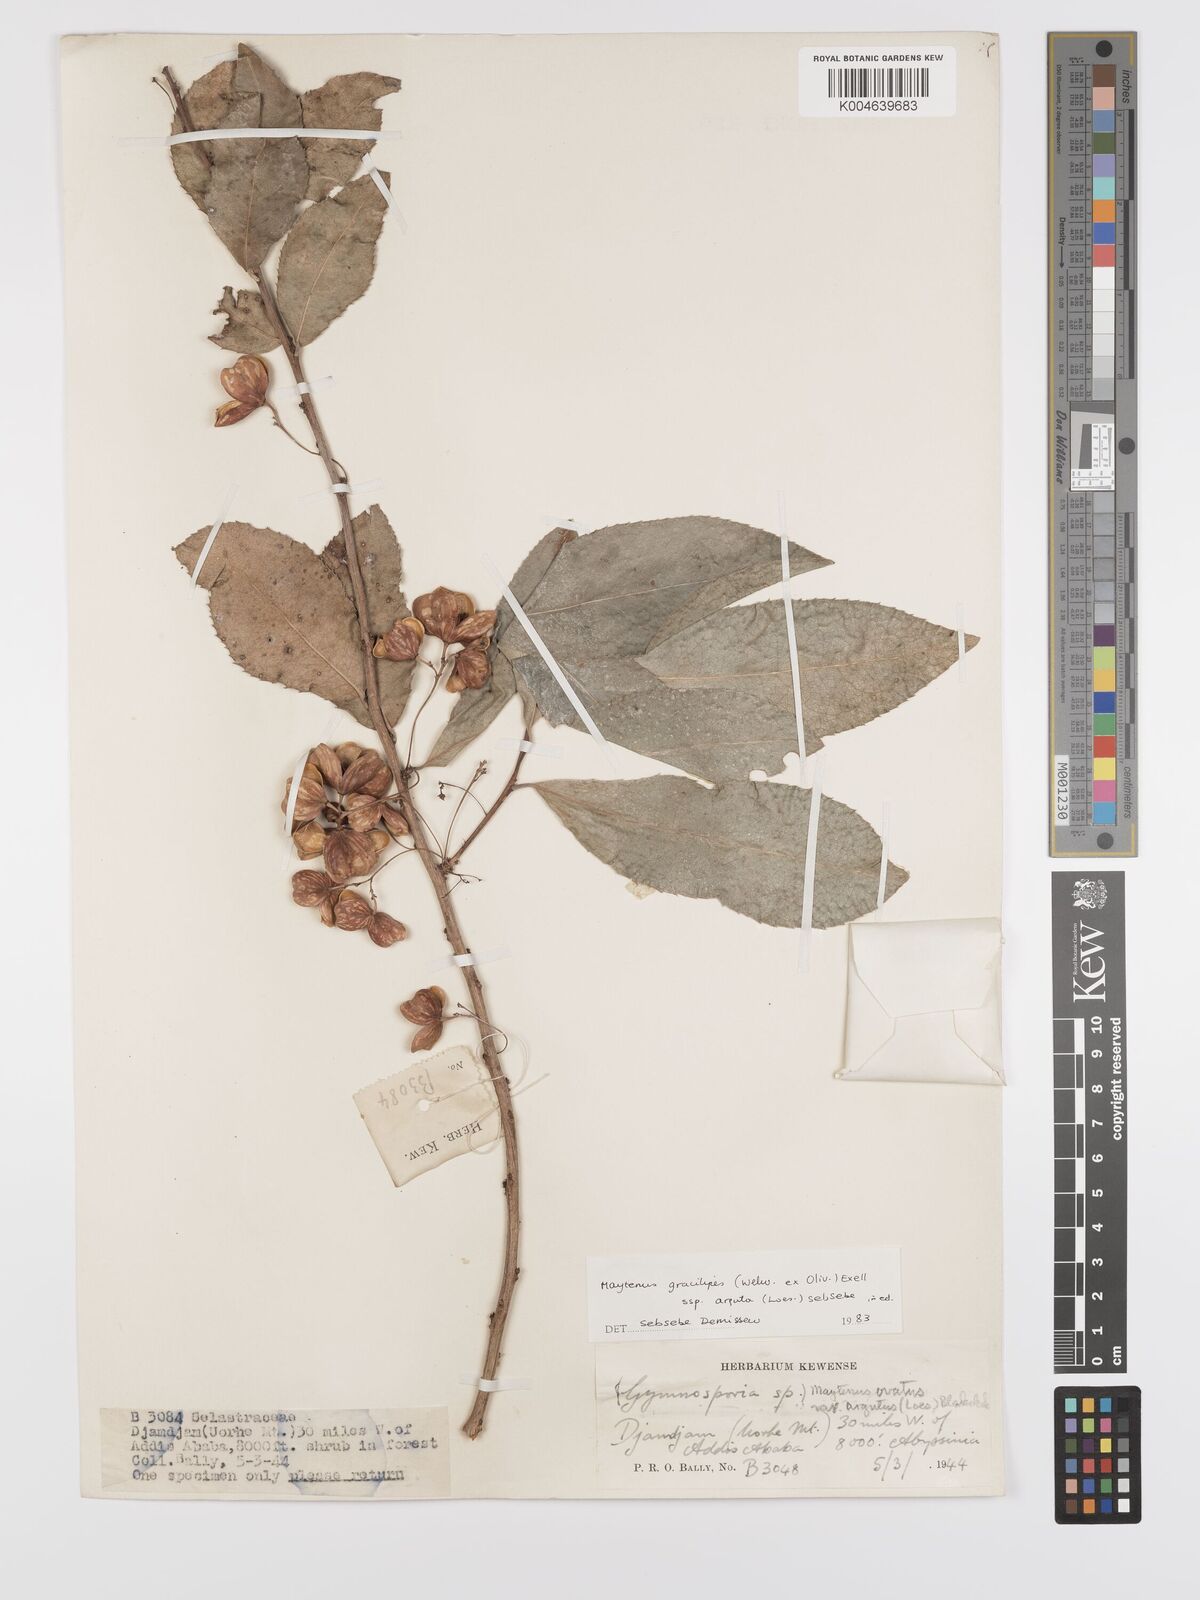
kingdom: Plantae
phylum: Tracheophyta
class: Magnoliopsida
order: Celastrales
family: Celastraceae
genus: Gymnosporia
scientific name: Gymnosporia gracilipes
